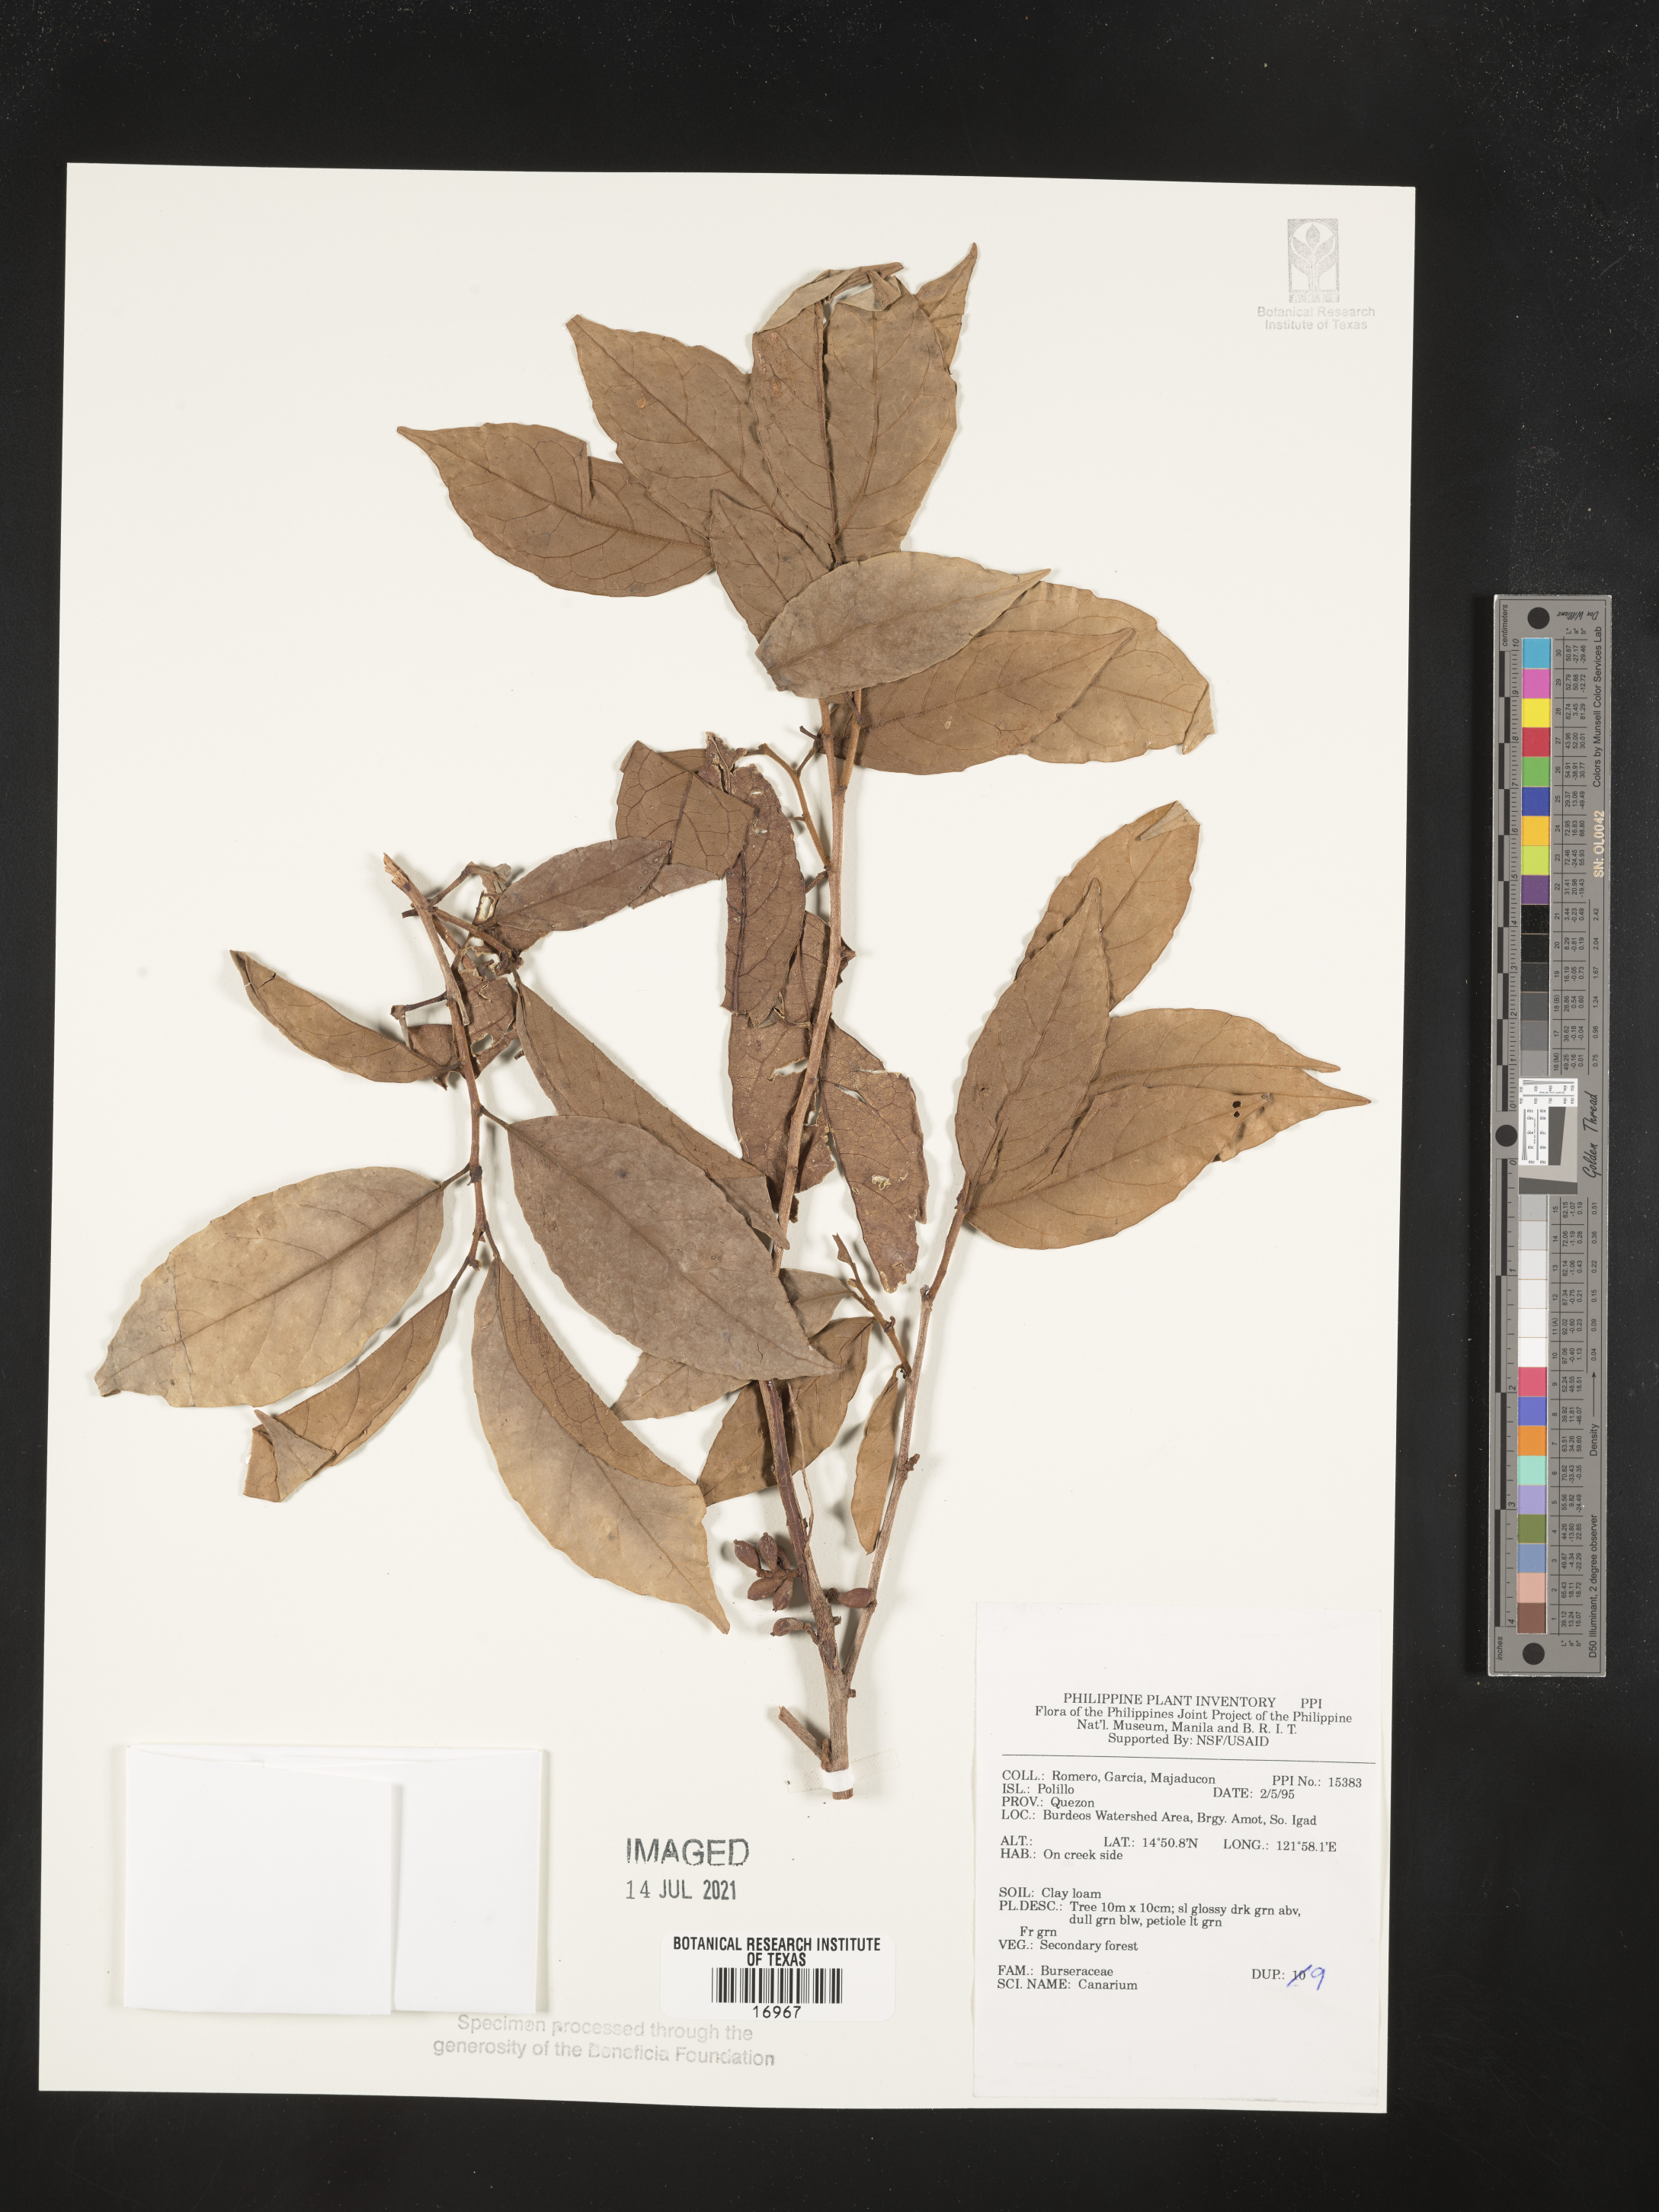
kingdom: Plantae
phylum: Tracheophyta
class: Magnoliopsida
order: Sapindales
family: Burseraceae
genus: Canarium
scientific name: Canarium
